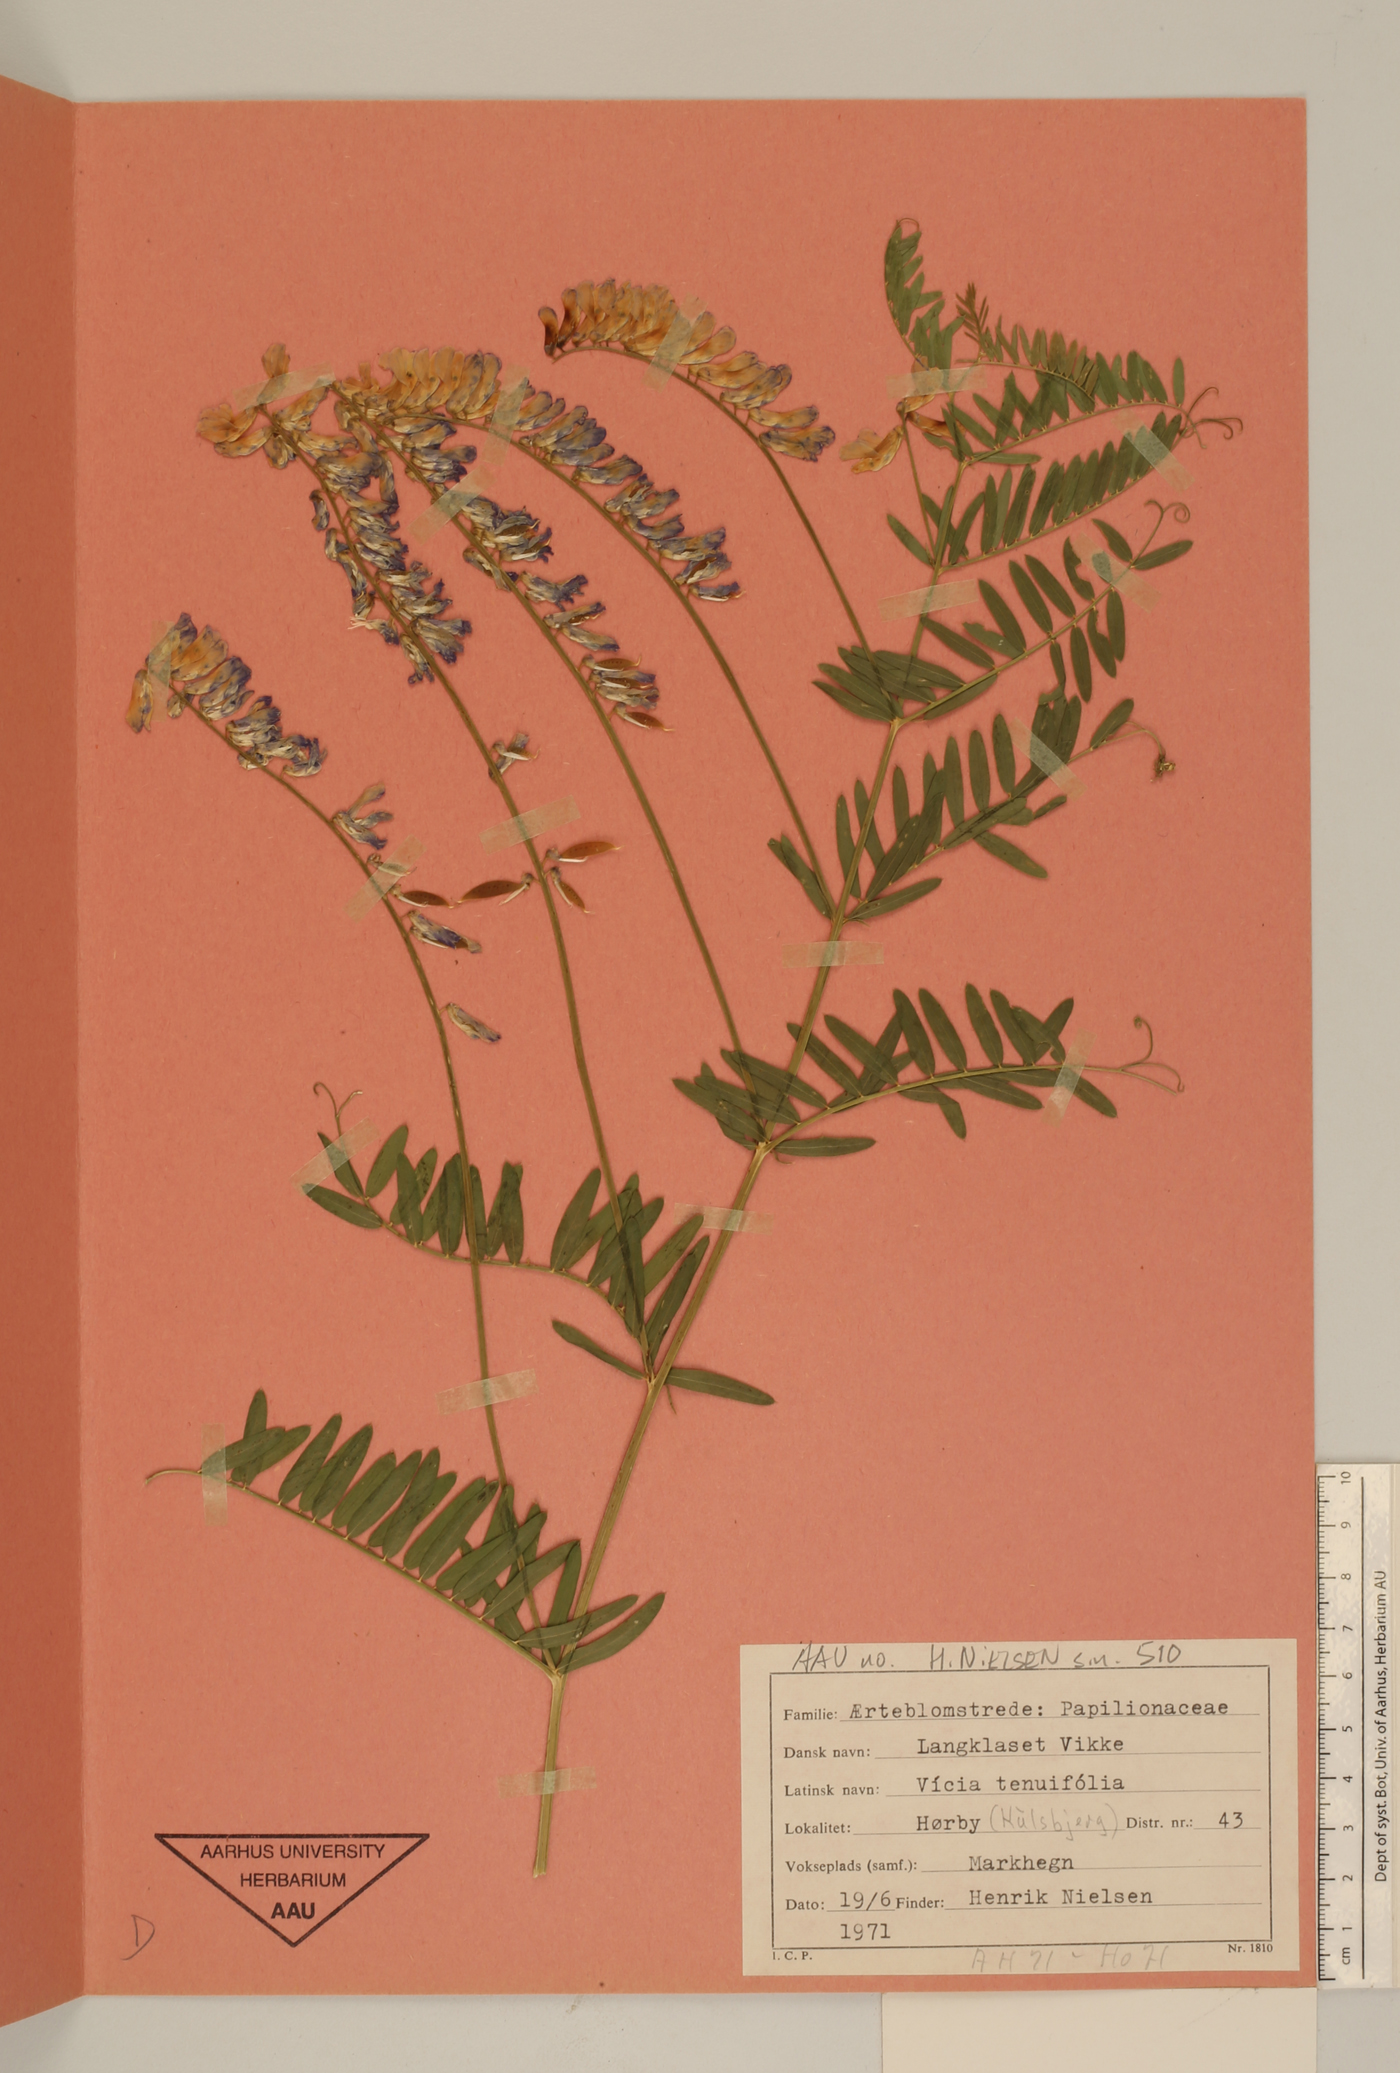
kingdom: Plantae
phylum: Tracheophyta
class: Magnoliopsida
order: Fabales
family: Fabaceae
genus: Vicia
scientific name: Vicia tenuifolia
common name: Fine-leaved vetch
